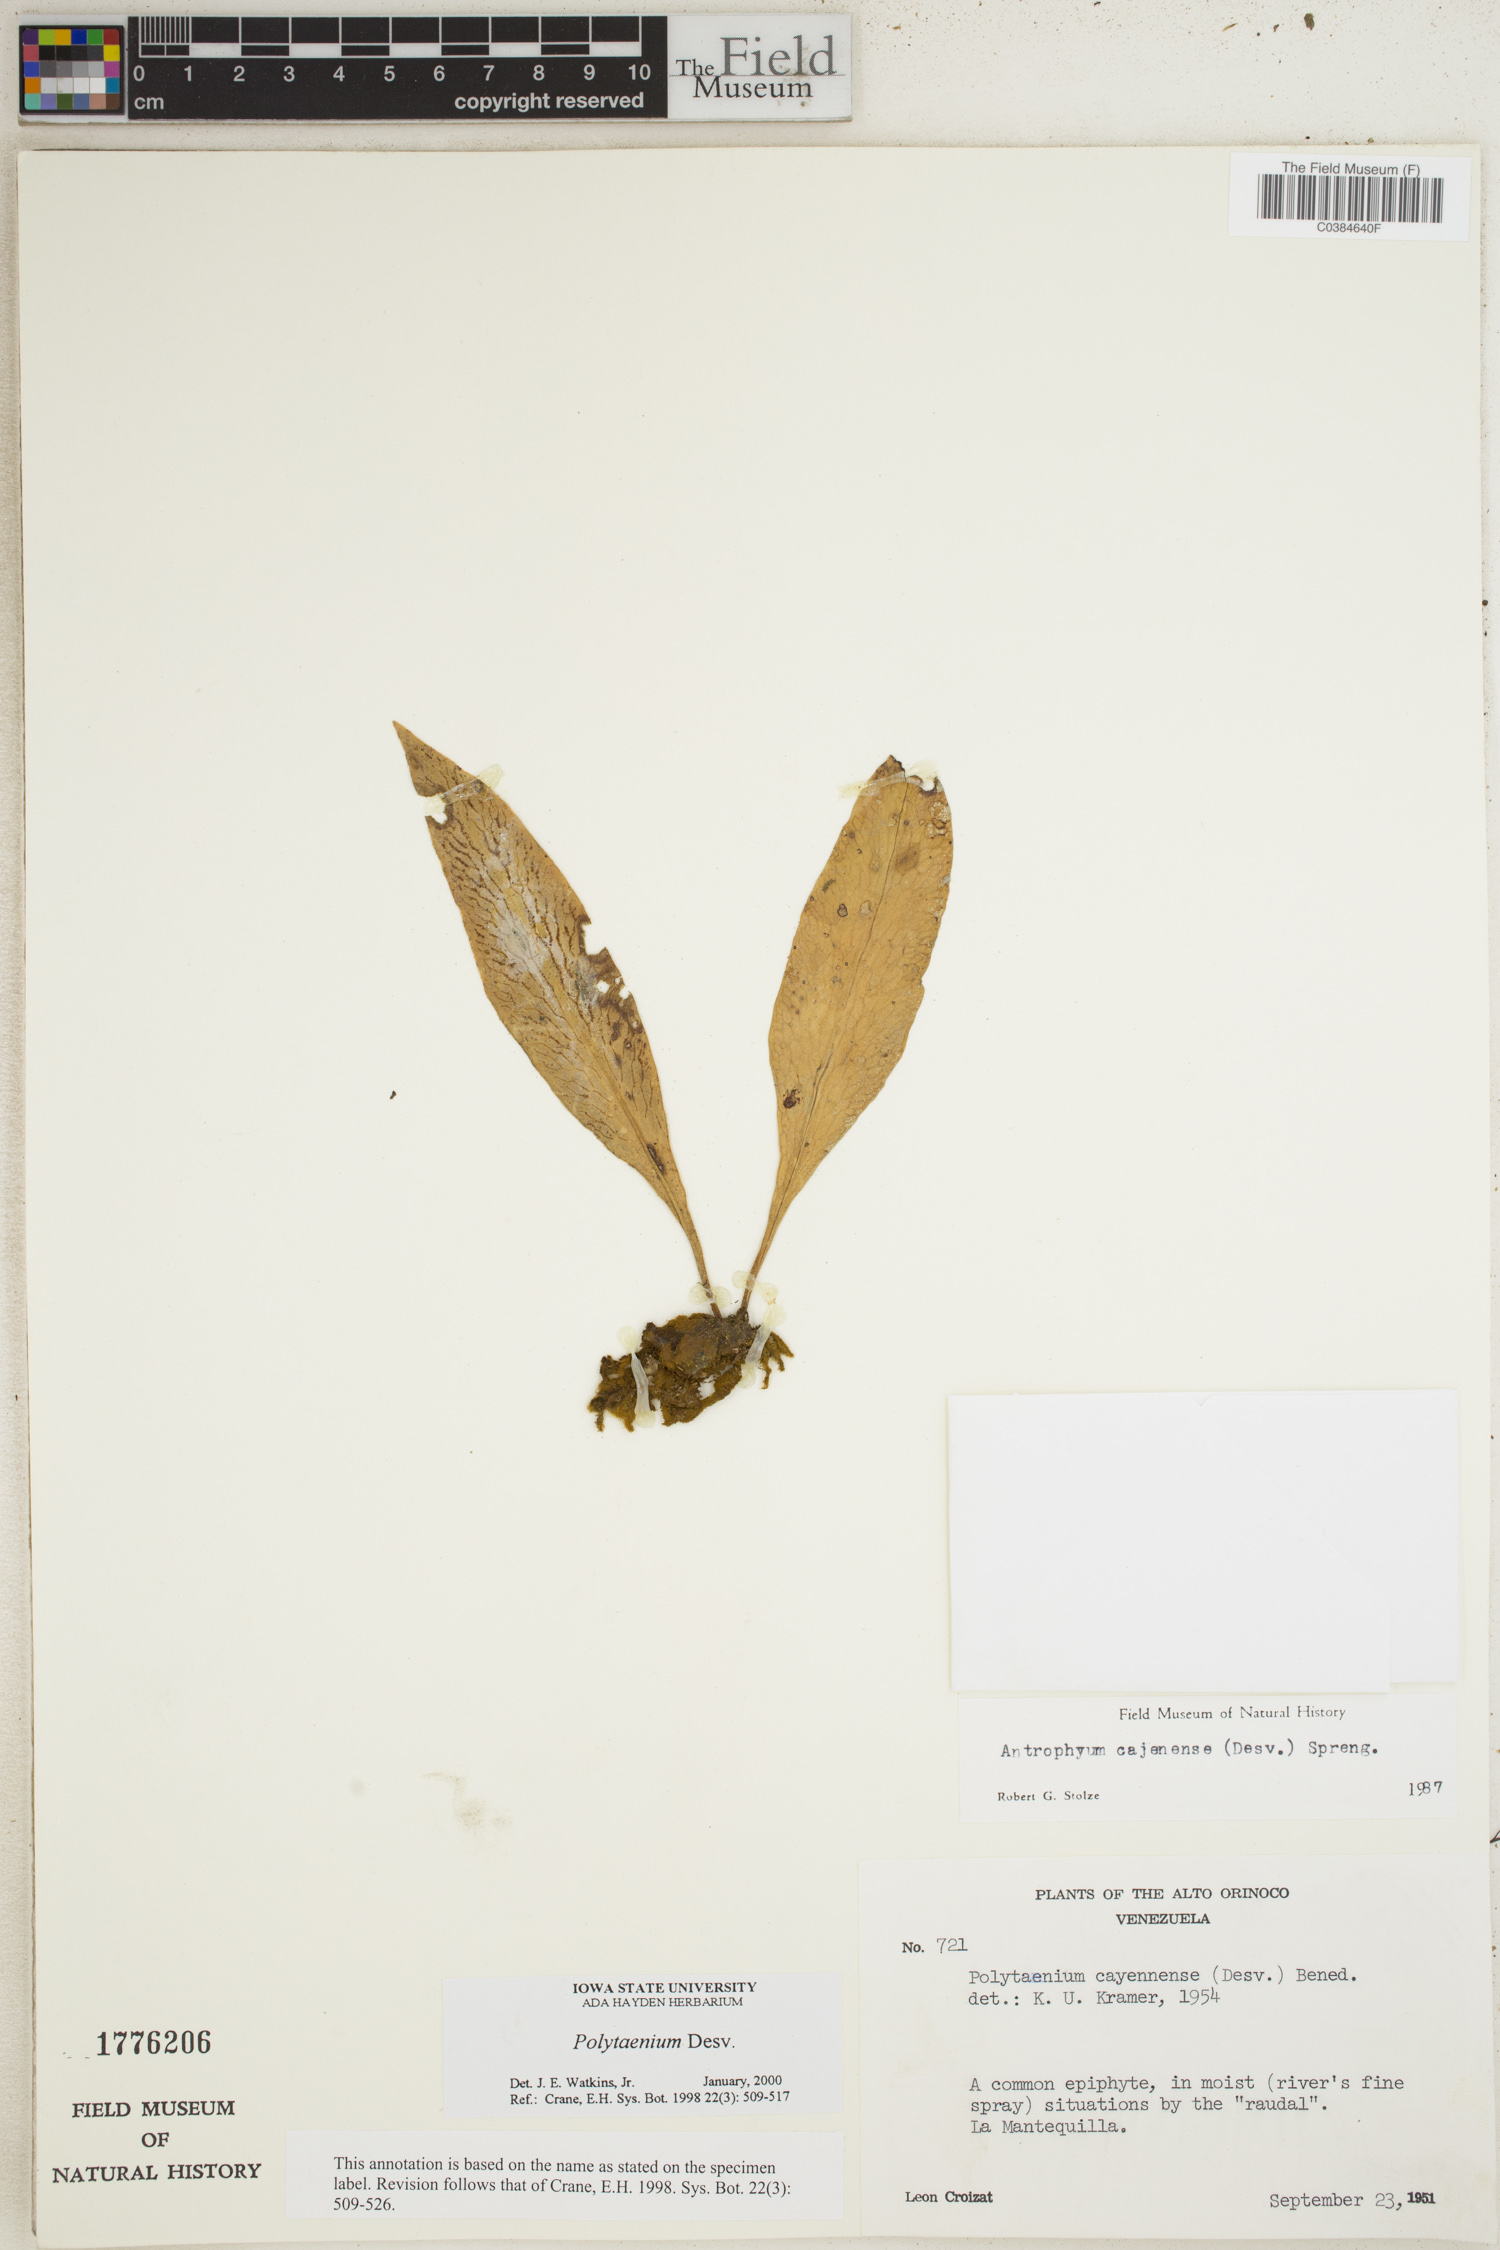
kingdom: Plantae
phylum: Tracheophyta
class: Polypodiopsida
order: Polypodiales
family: Pteridaceae
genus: Polytaenium
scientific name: Polytaenium
